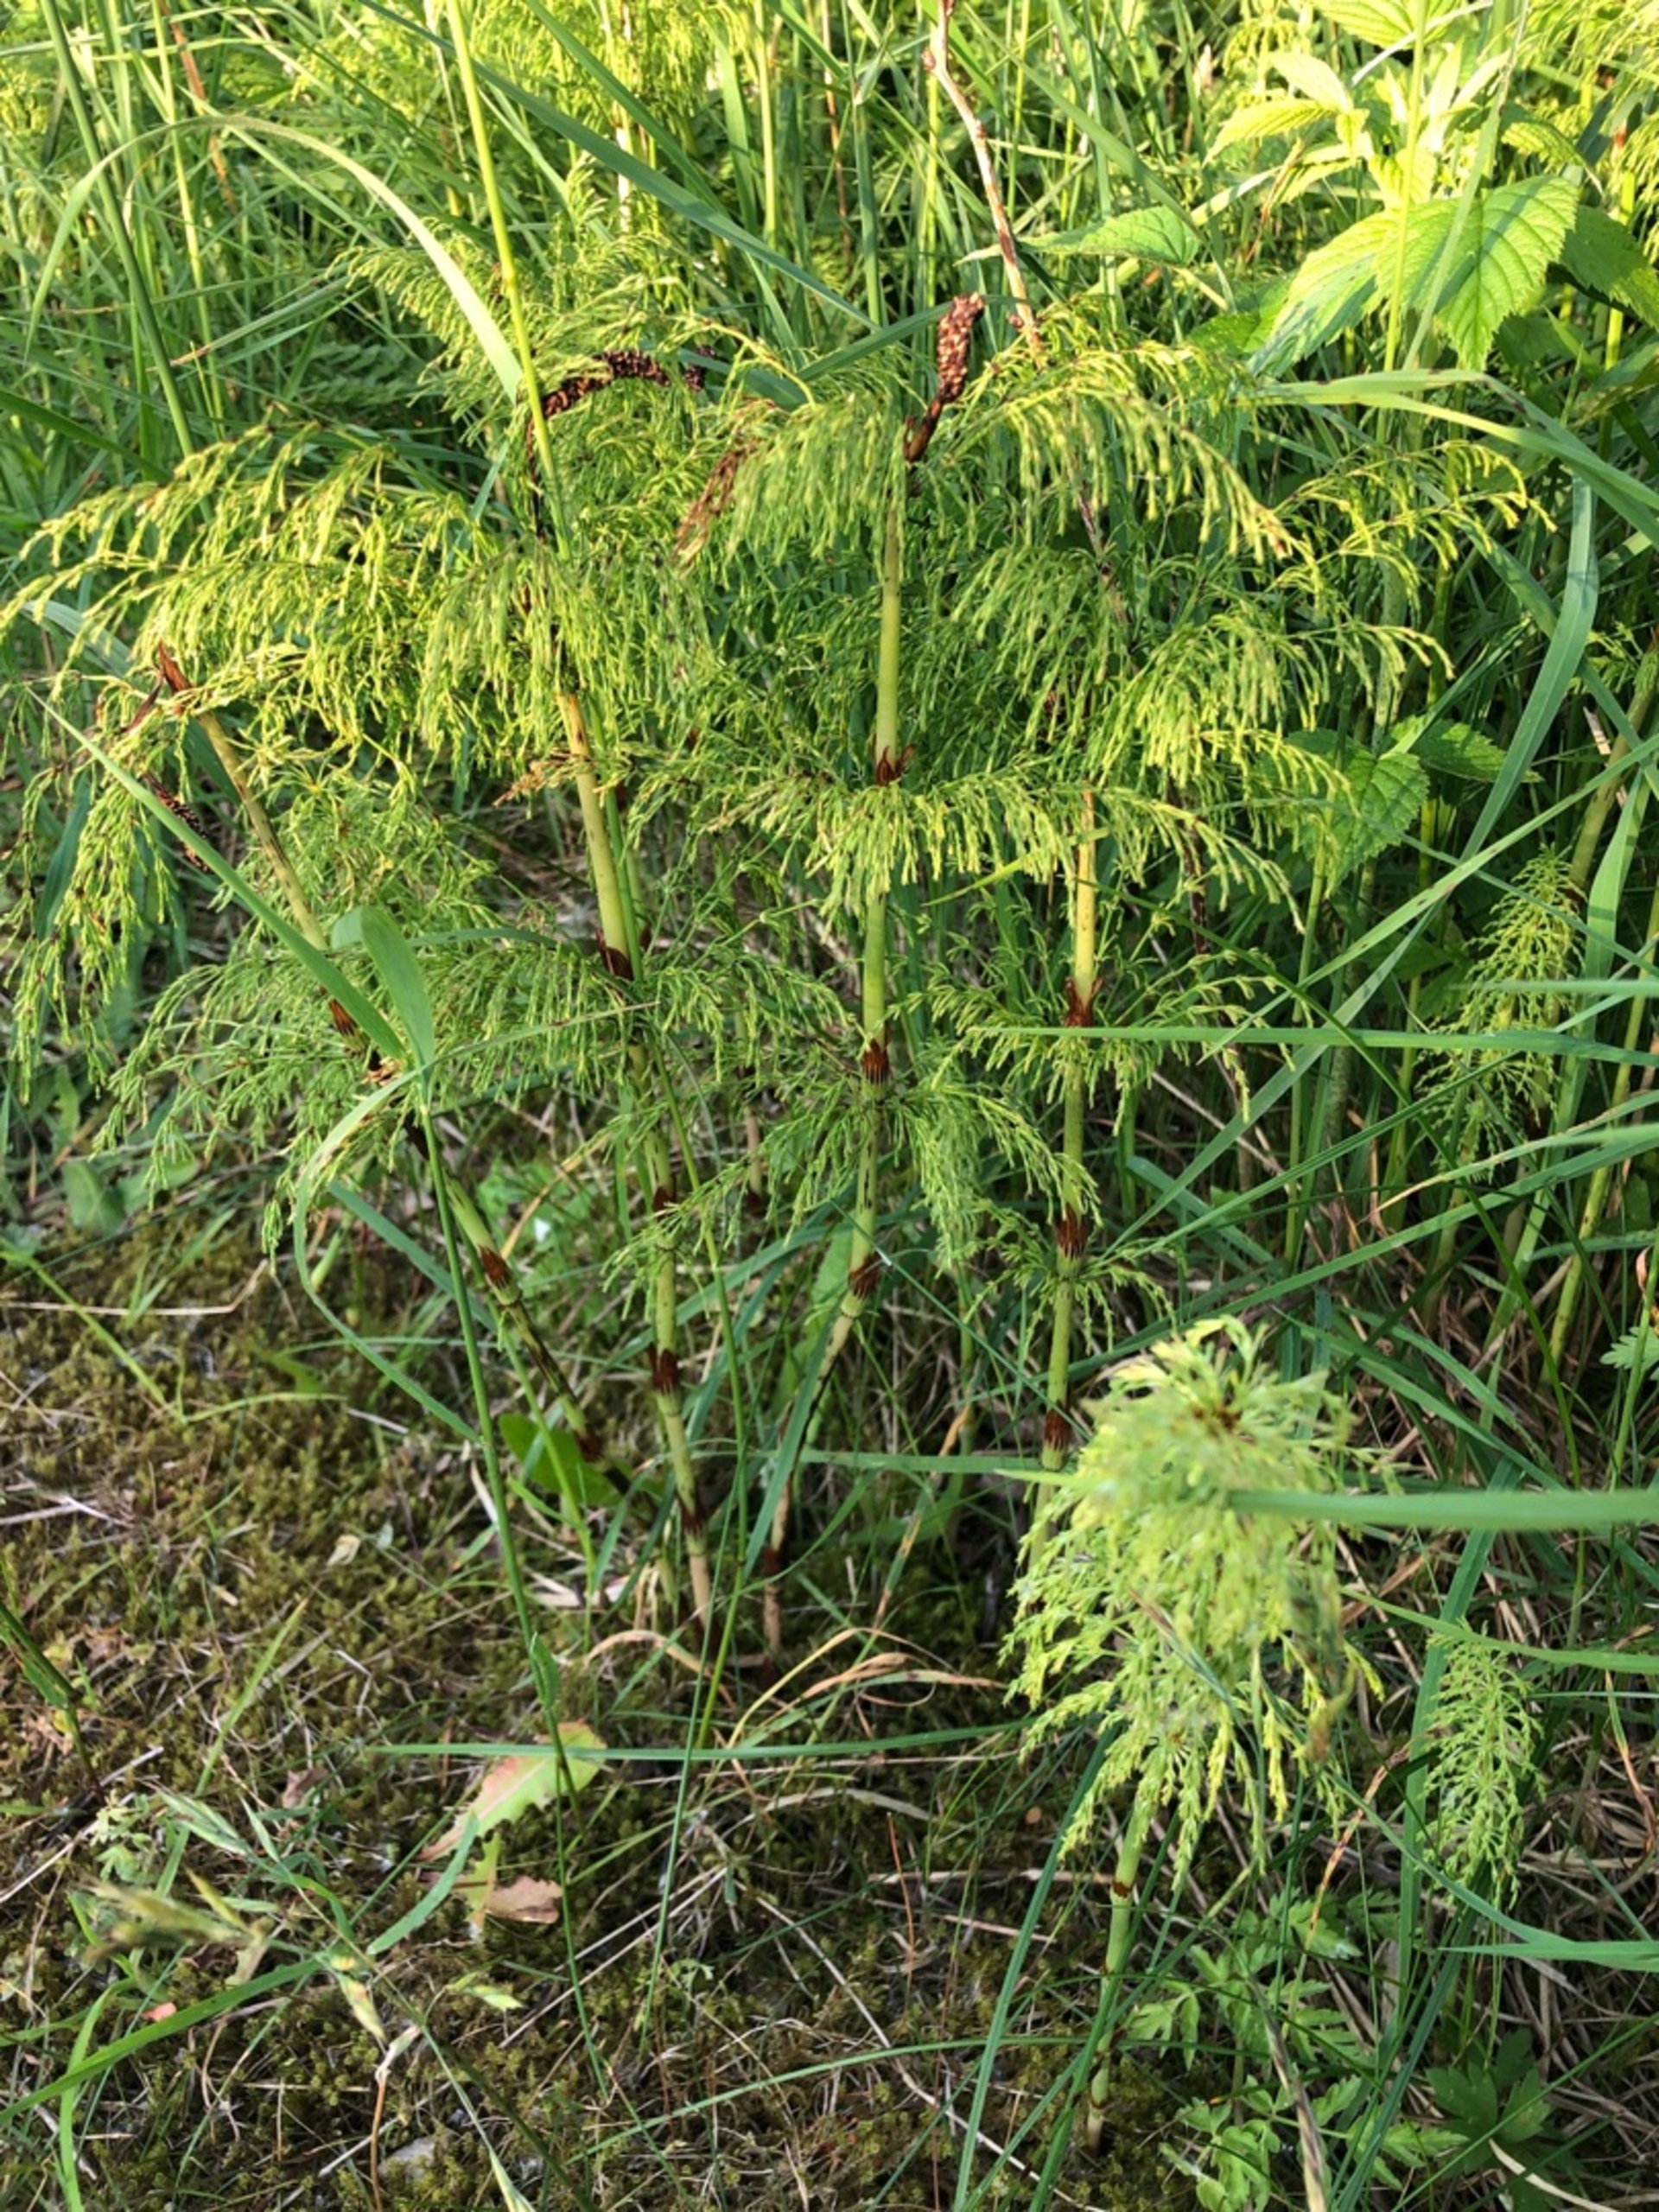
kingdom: Plantae
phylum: Tracheophyta
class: Polypodiopsida
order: Equisetales
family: Equisetaceae
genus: Equisetum
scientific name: Equisetum sylvaticum
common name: Skov-padderok
